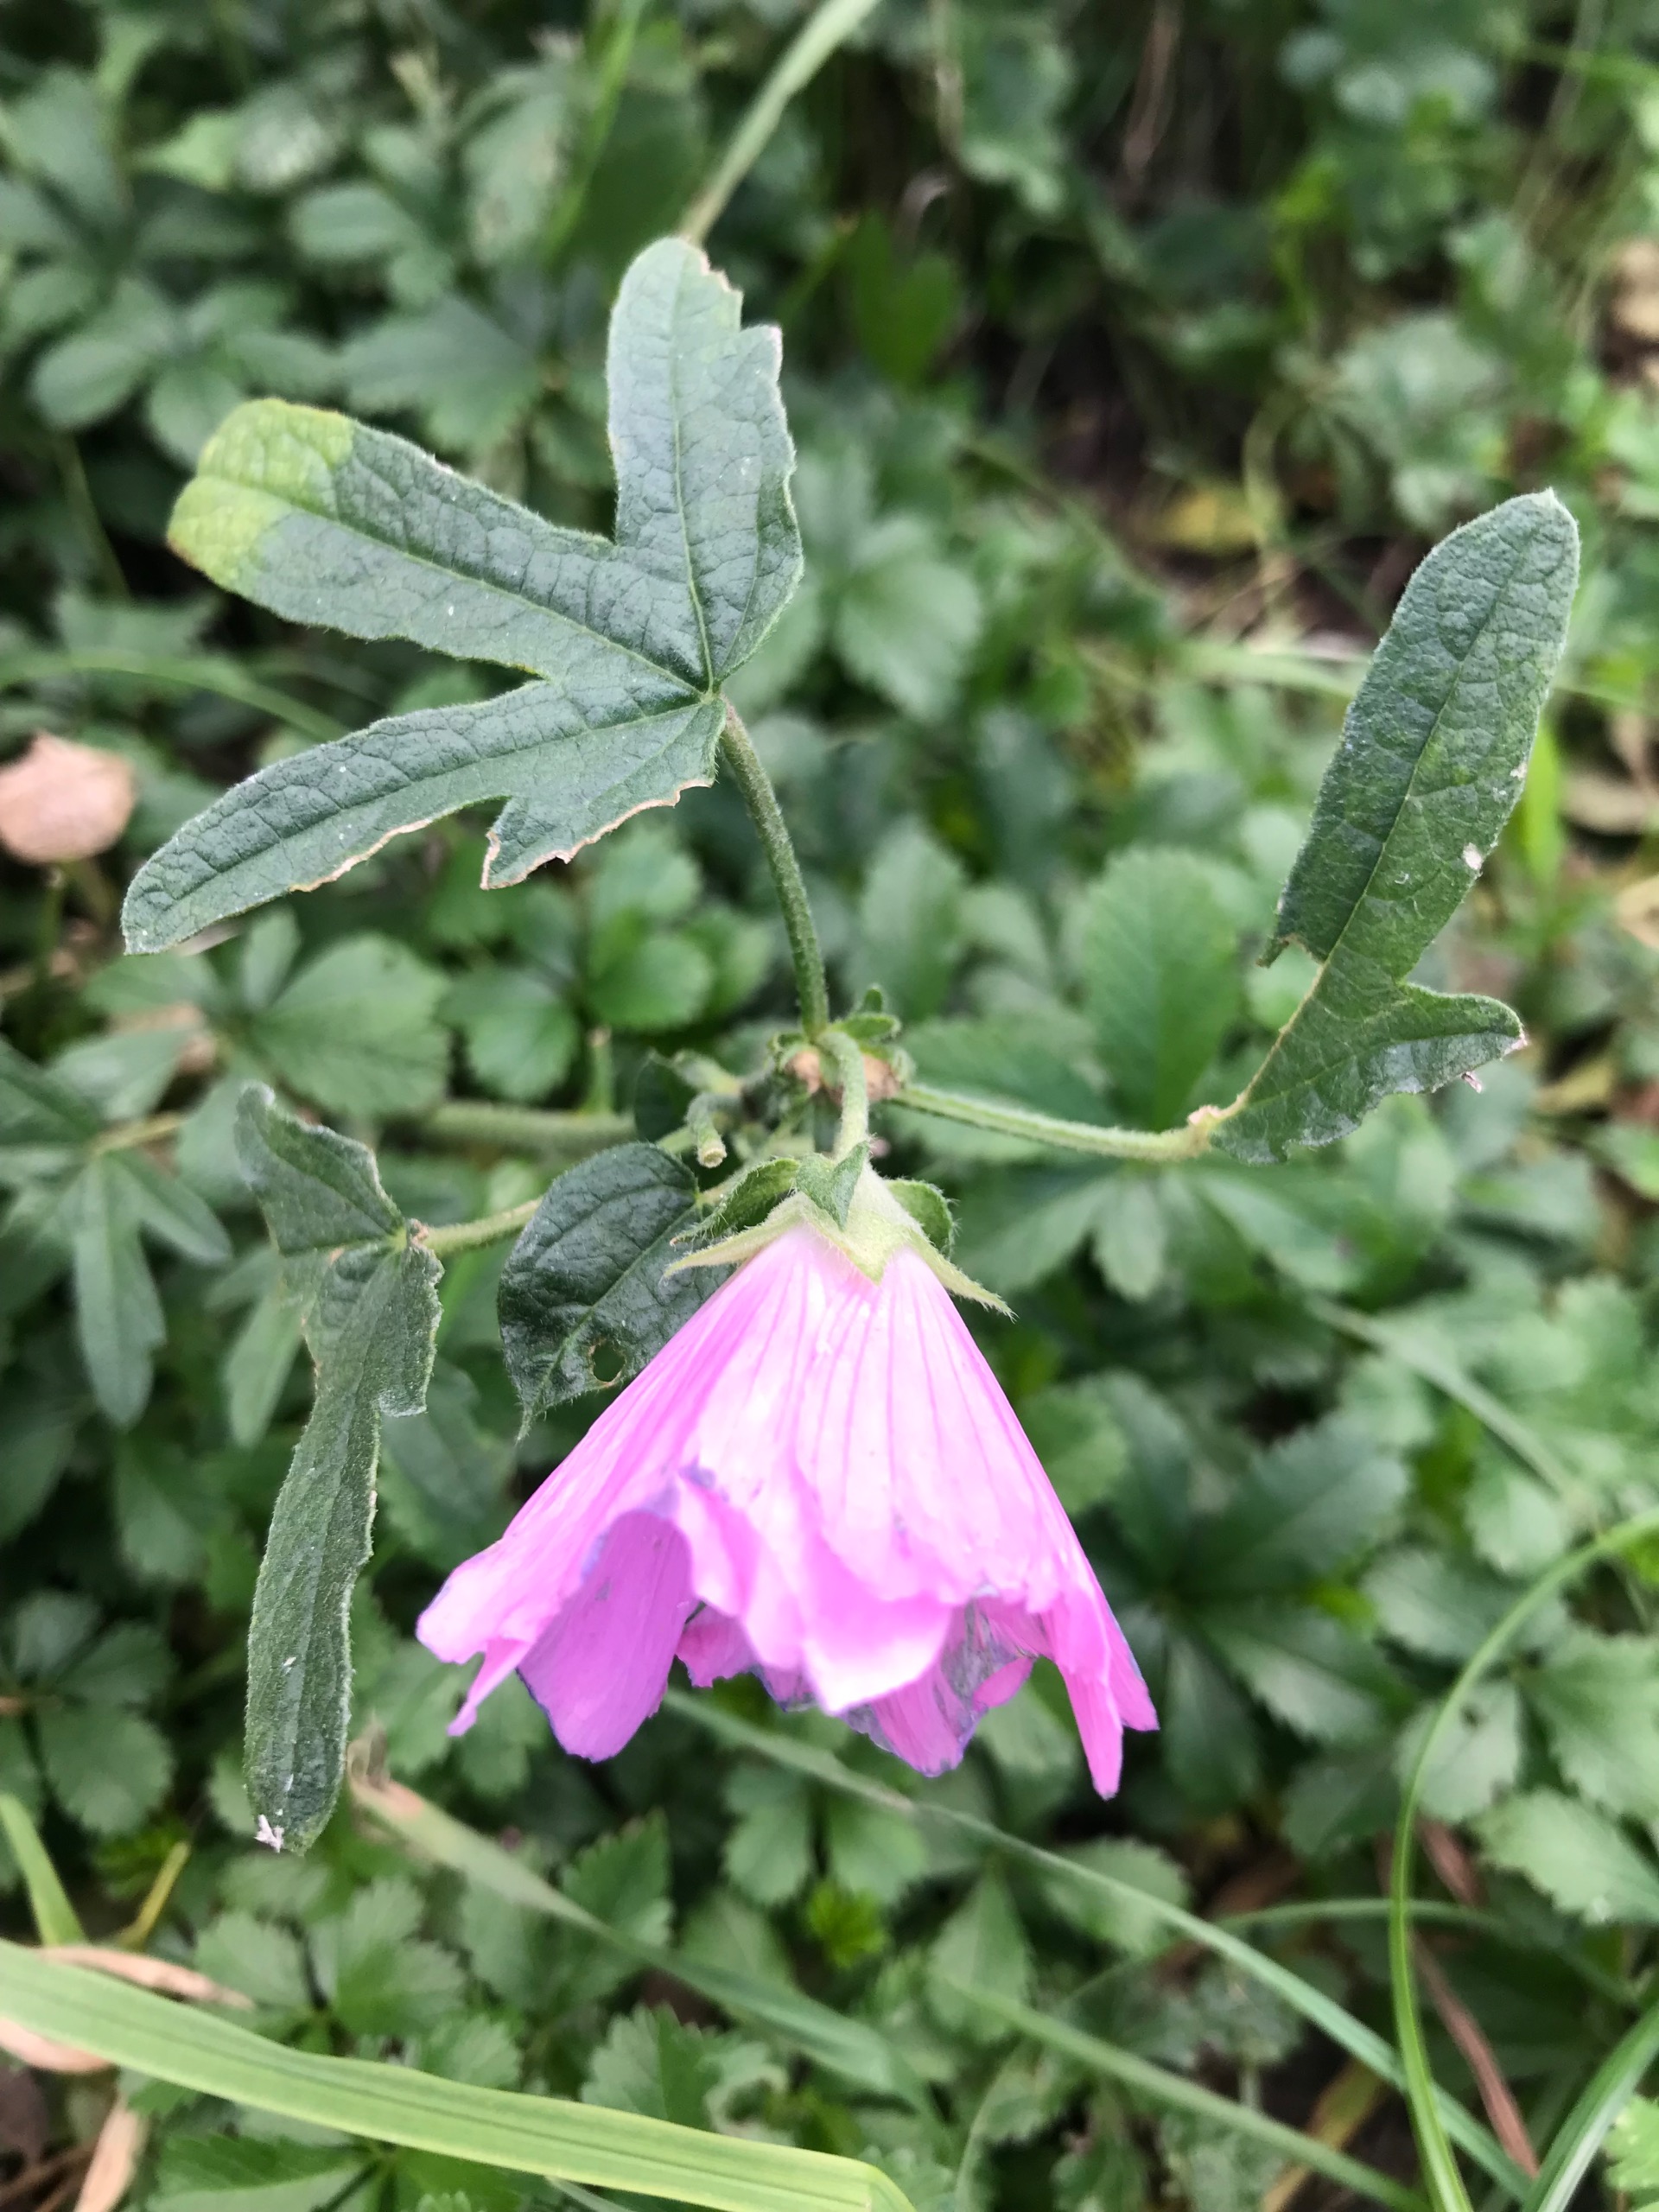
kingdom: Plantae
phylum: Tracheophyta
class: Magnoliopsida
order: Malvales
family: Malvaceae
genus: Malva
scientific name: Malva alcea
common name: Rosen-katost
